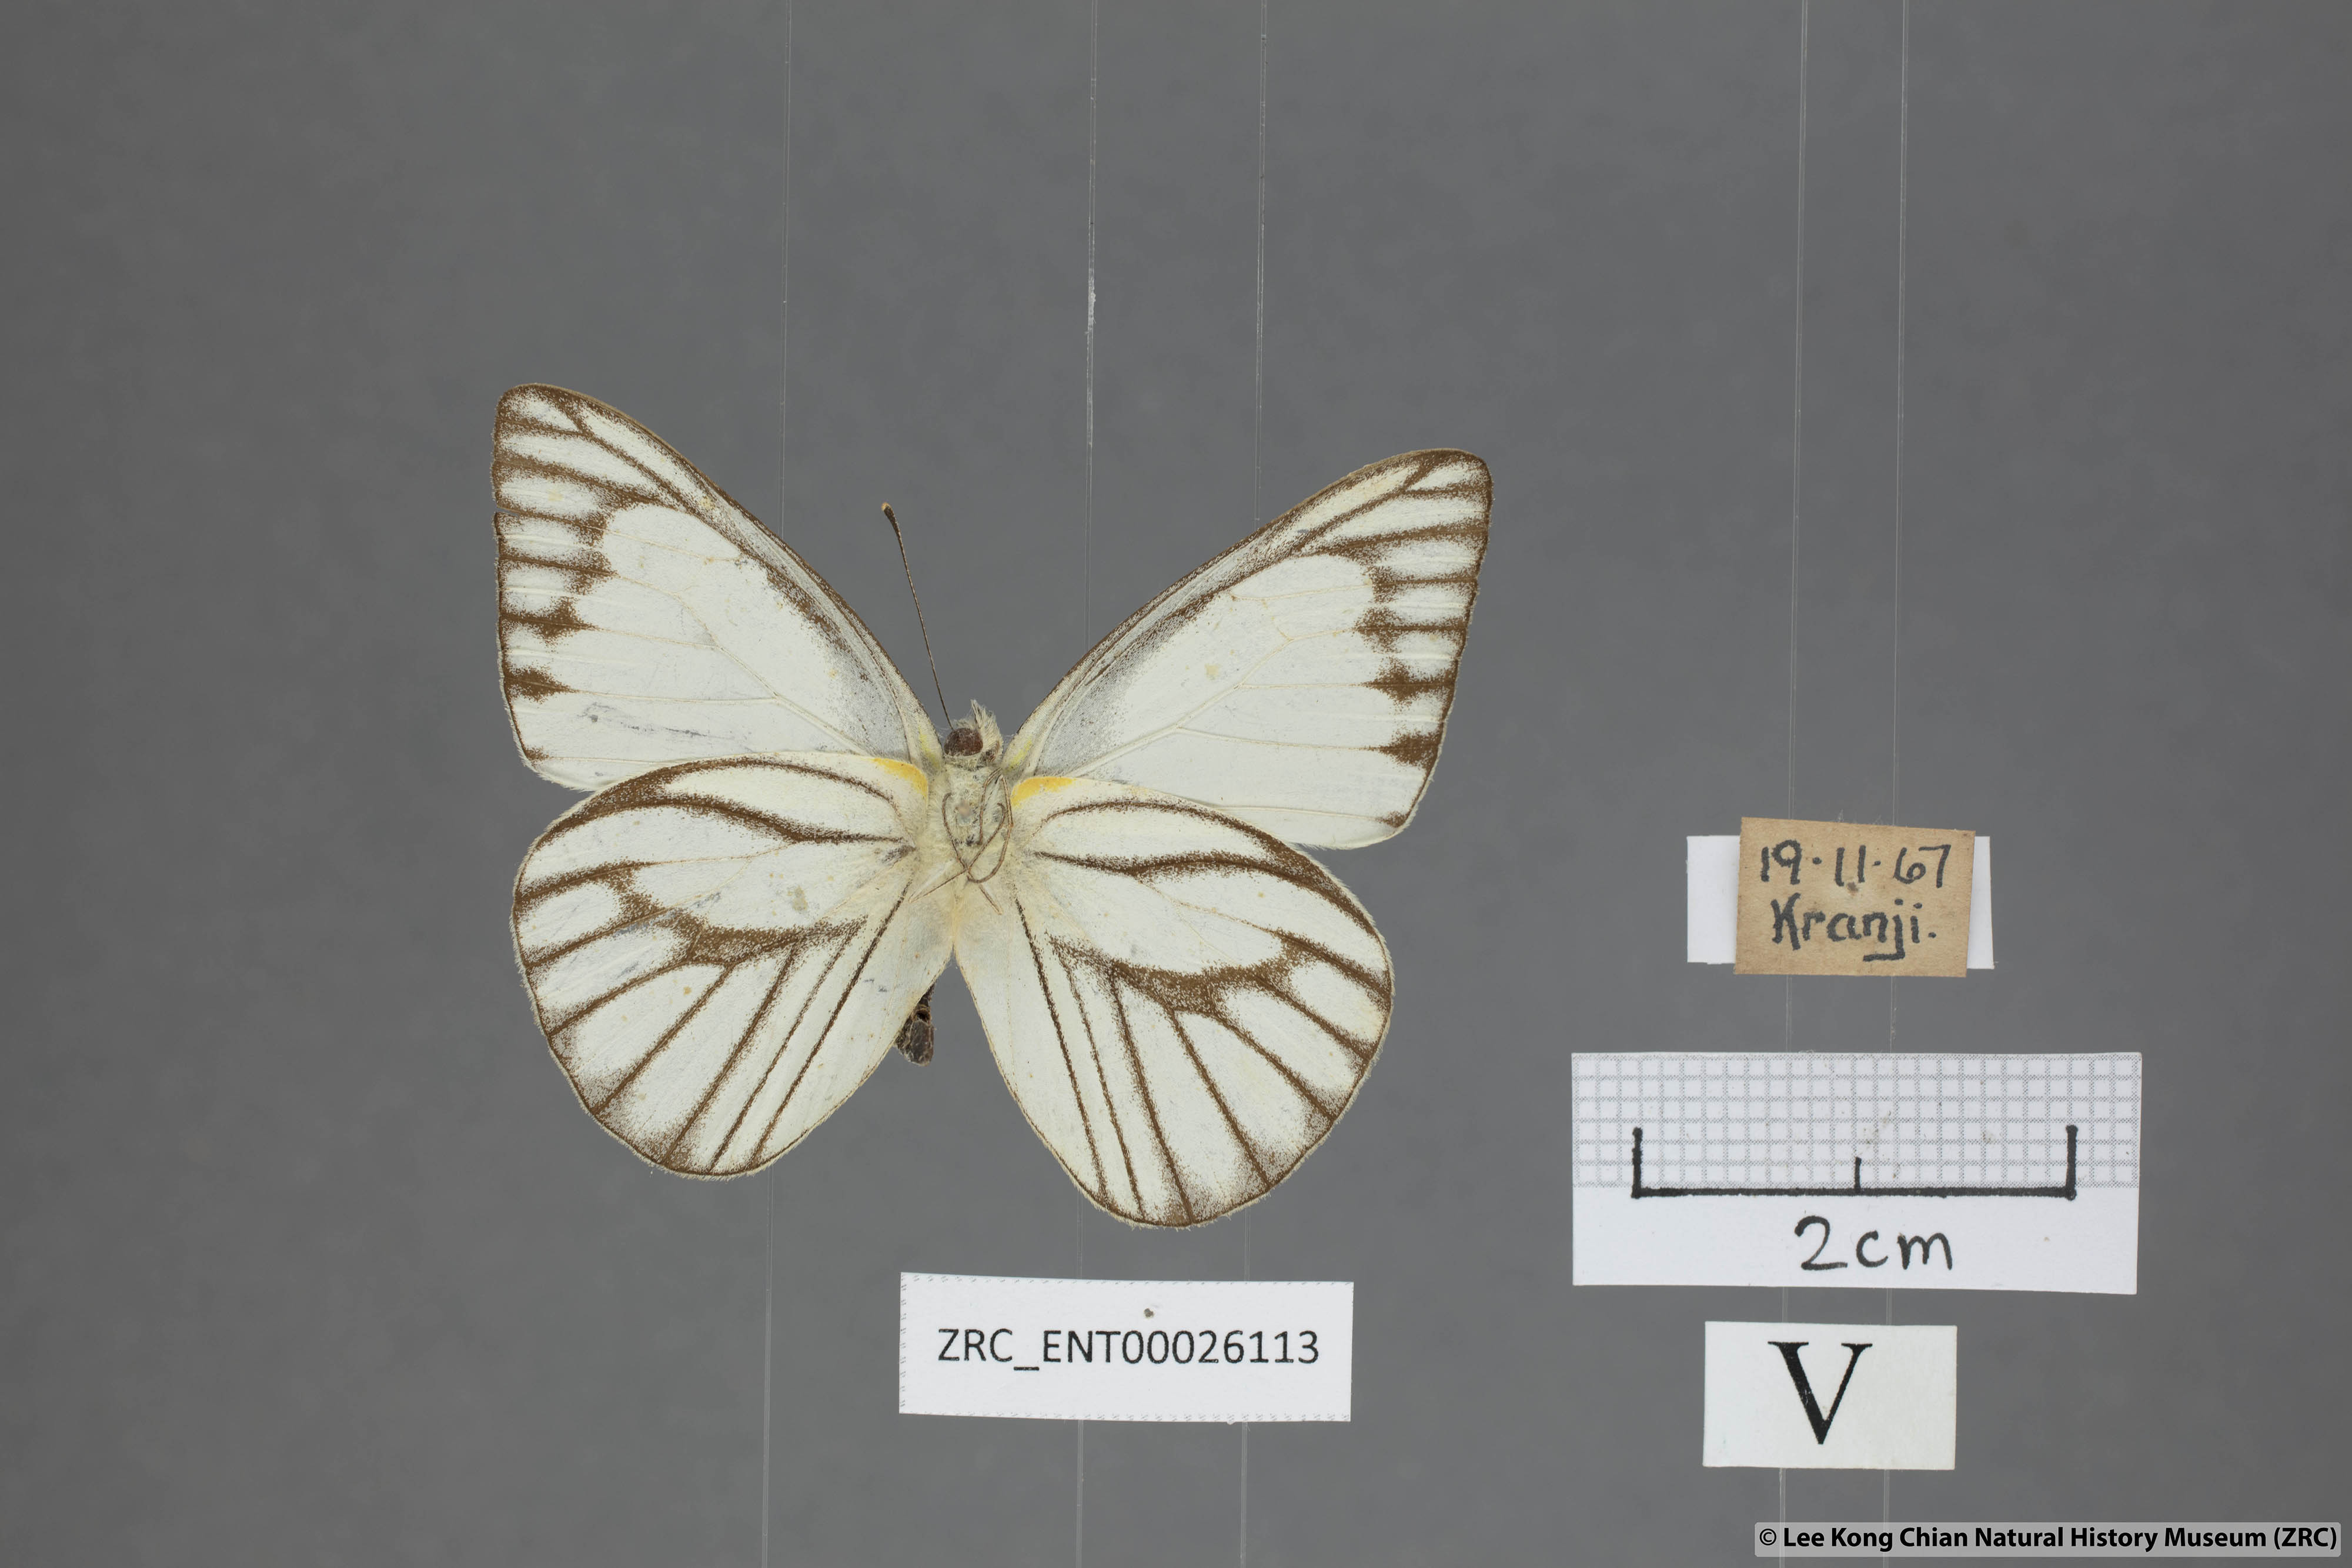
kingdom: Animalia
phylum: Arthropoda
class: Insecta
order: Lepidoptera
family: Pieridae
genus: Appias
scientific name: Appias libythea
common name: Striped albatross
